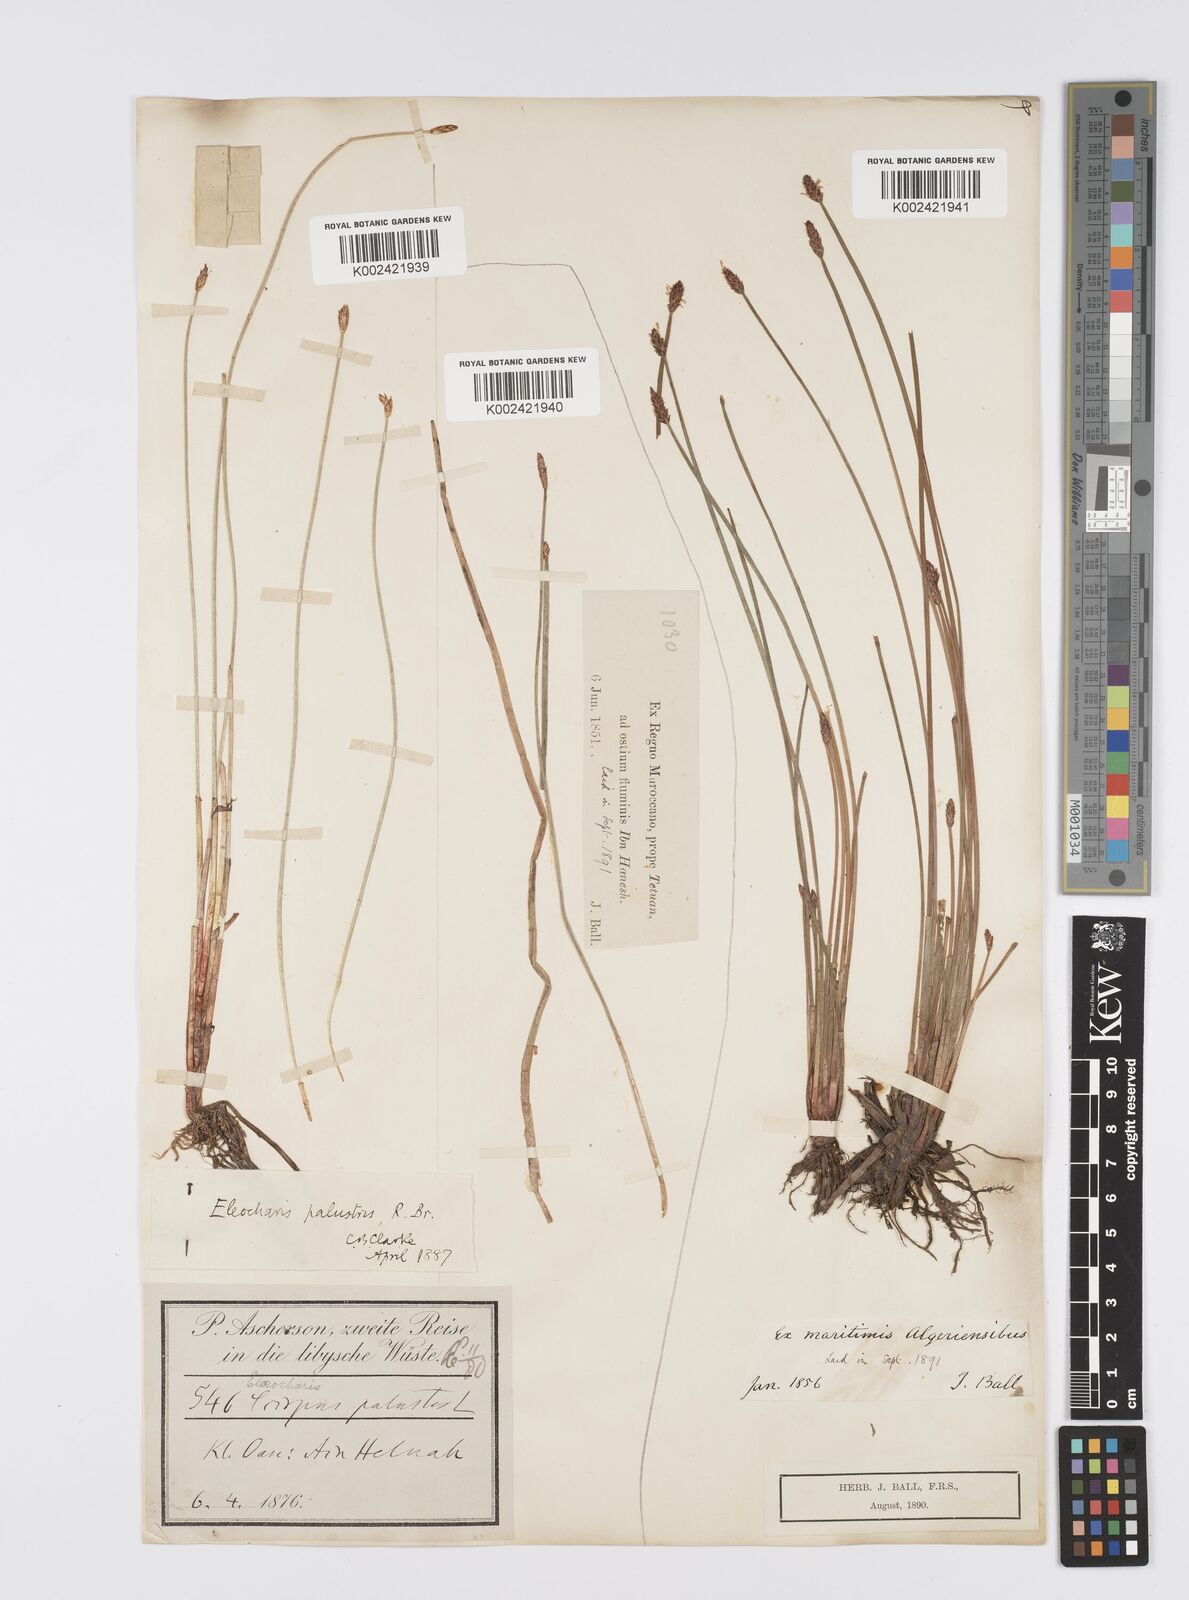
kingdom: Plantae
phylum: Tracheophyta
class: Liliopsida
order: Poales
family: Cyperaceae
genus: Eleocharis
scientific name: Eleocharis palustris
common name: Common spike-rush
